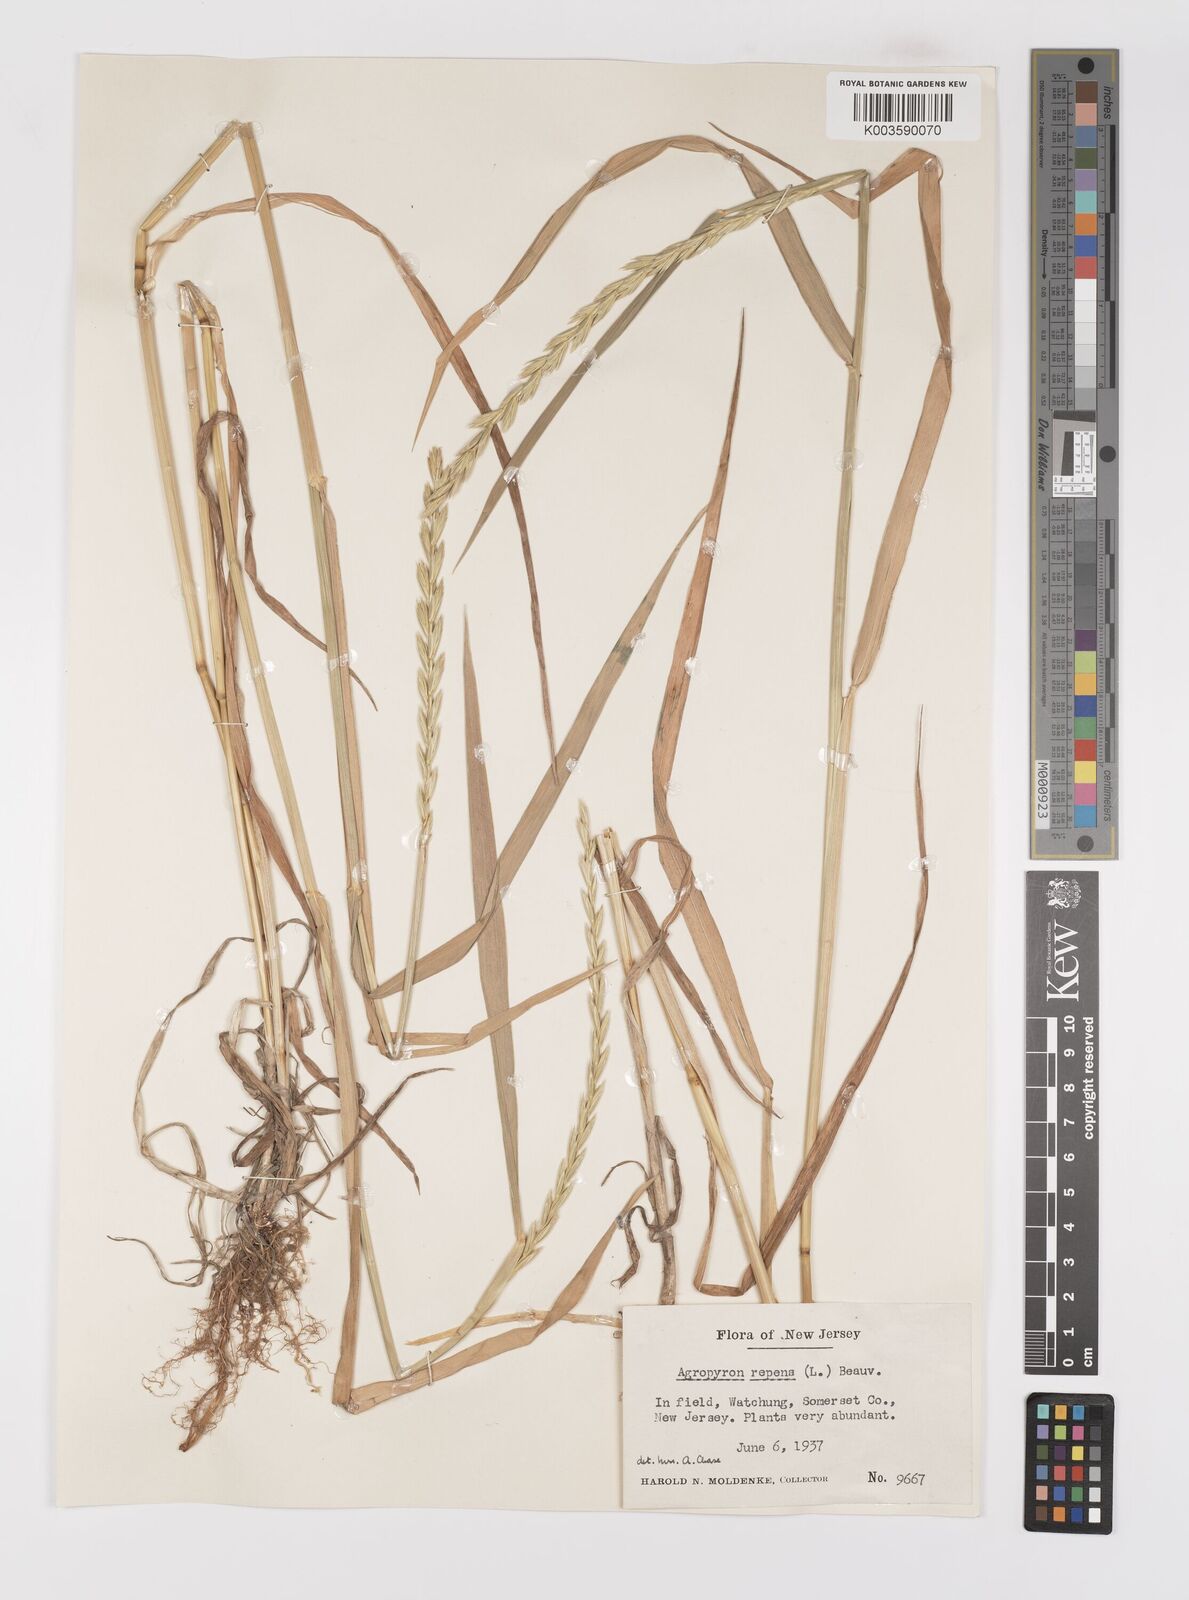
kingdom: Plantae
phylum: Tracheophyta
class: Liliopsida
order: Poales
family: Poaceae
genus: Elymus
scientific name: Elymus repens
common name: Quackgrass
